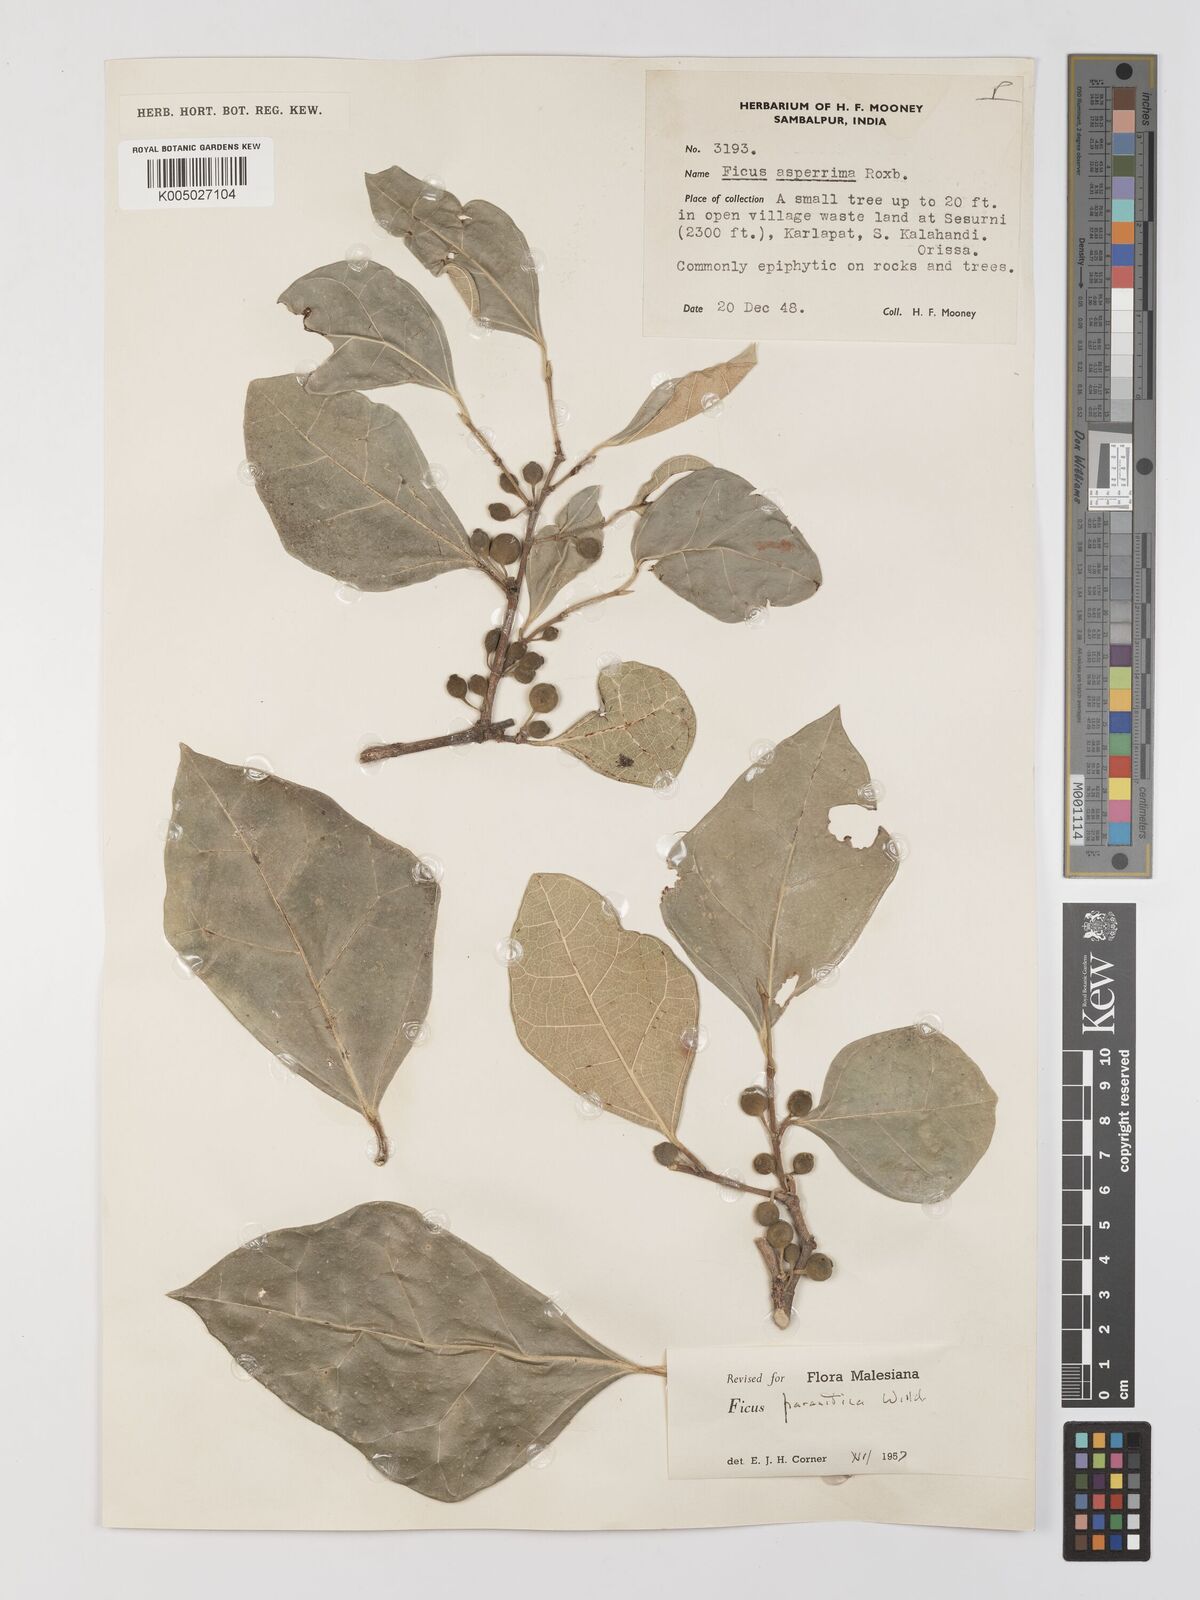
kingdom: Plantae
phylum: Tracheophyta
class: Magnoliopsida
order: Rosales
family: Moraceae
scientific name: Moraceae
